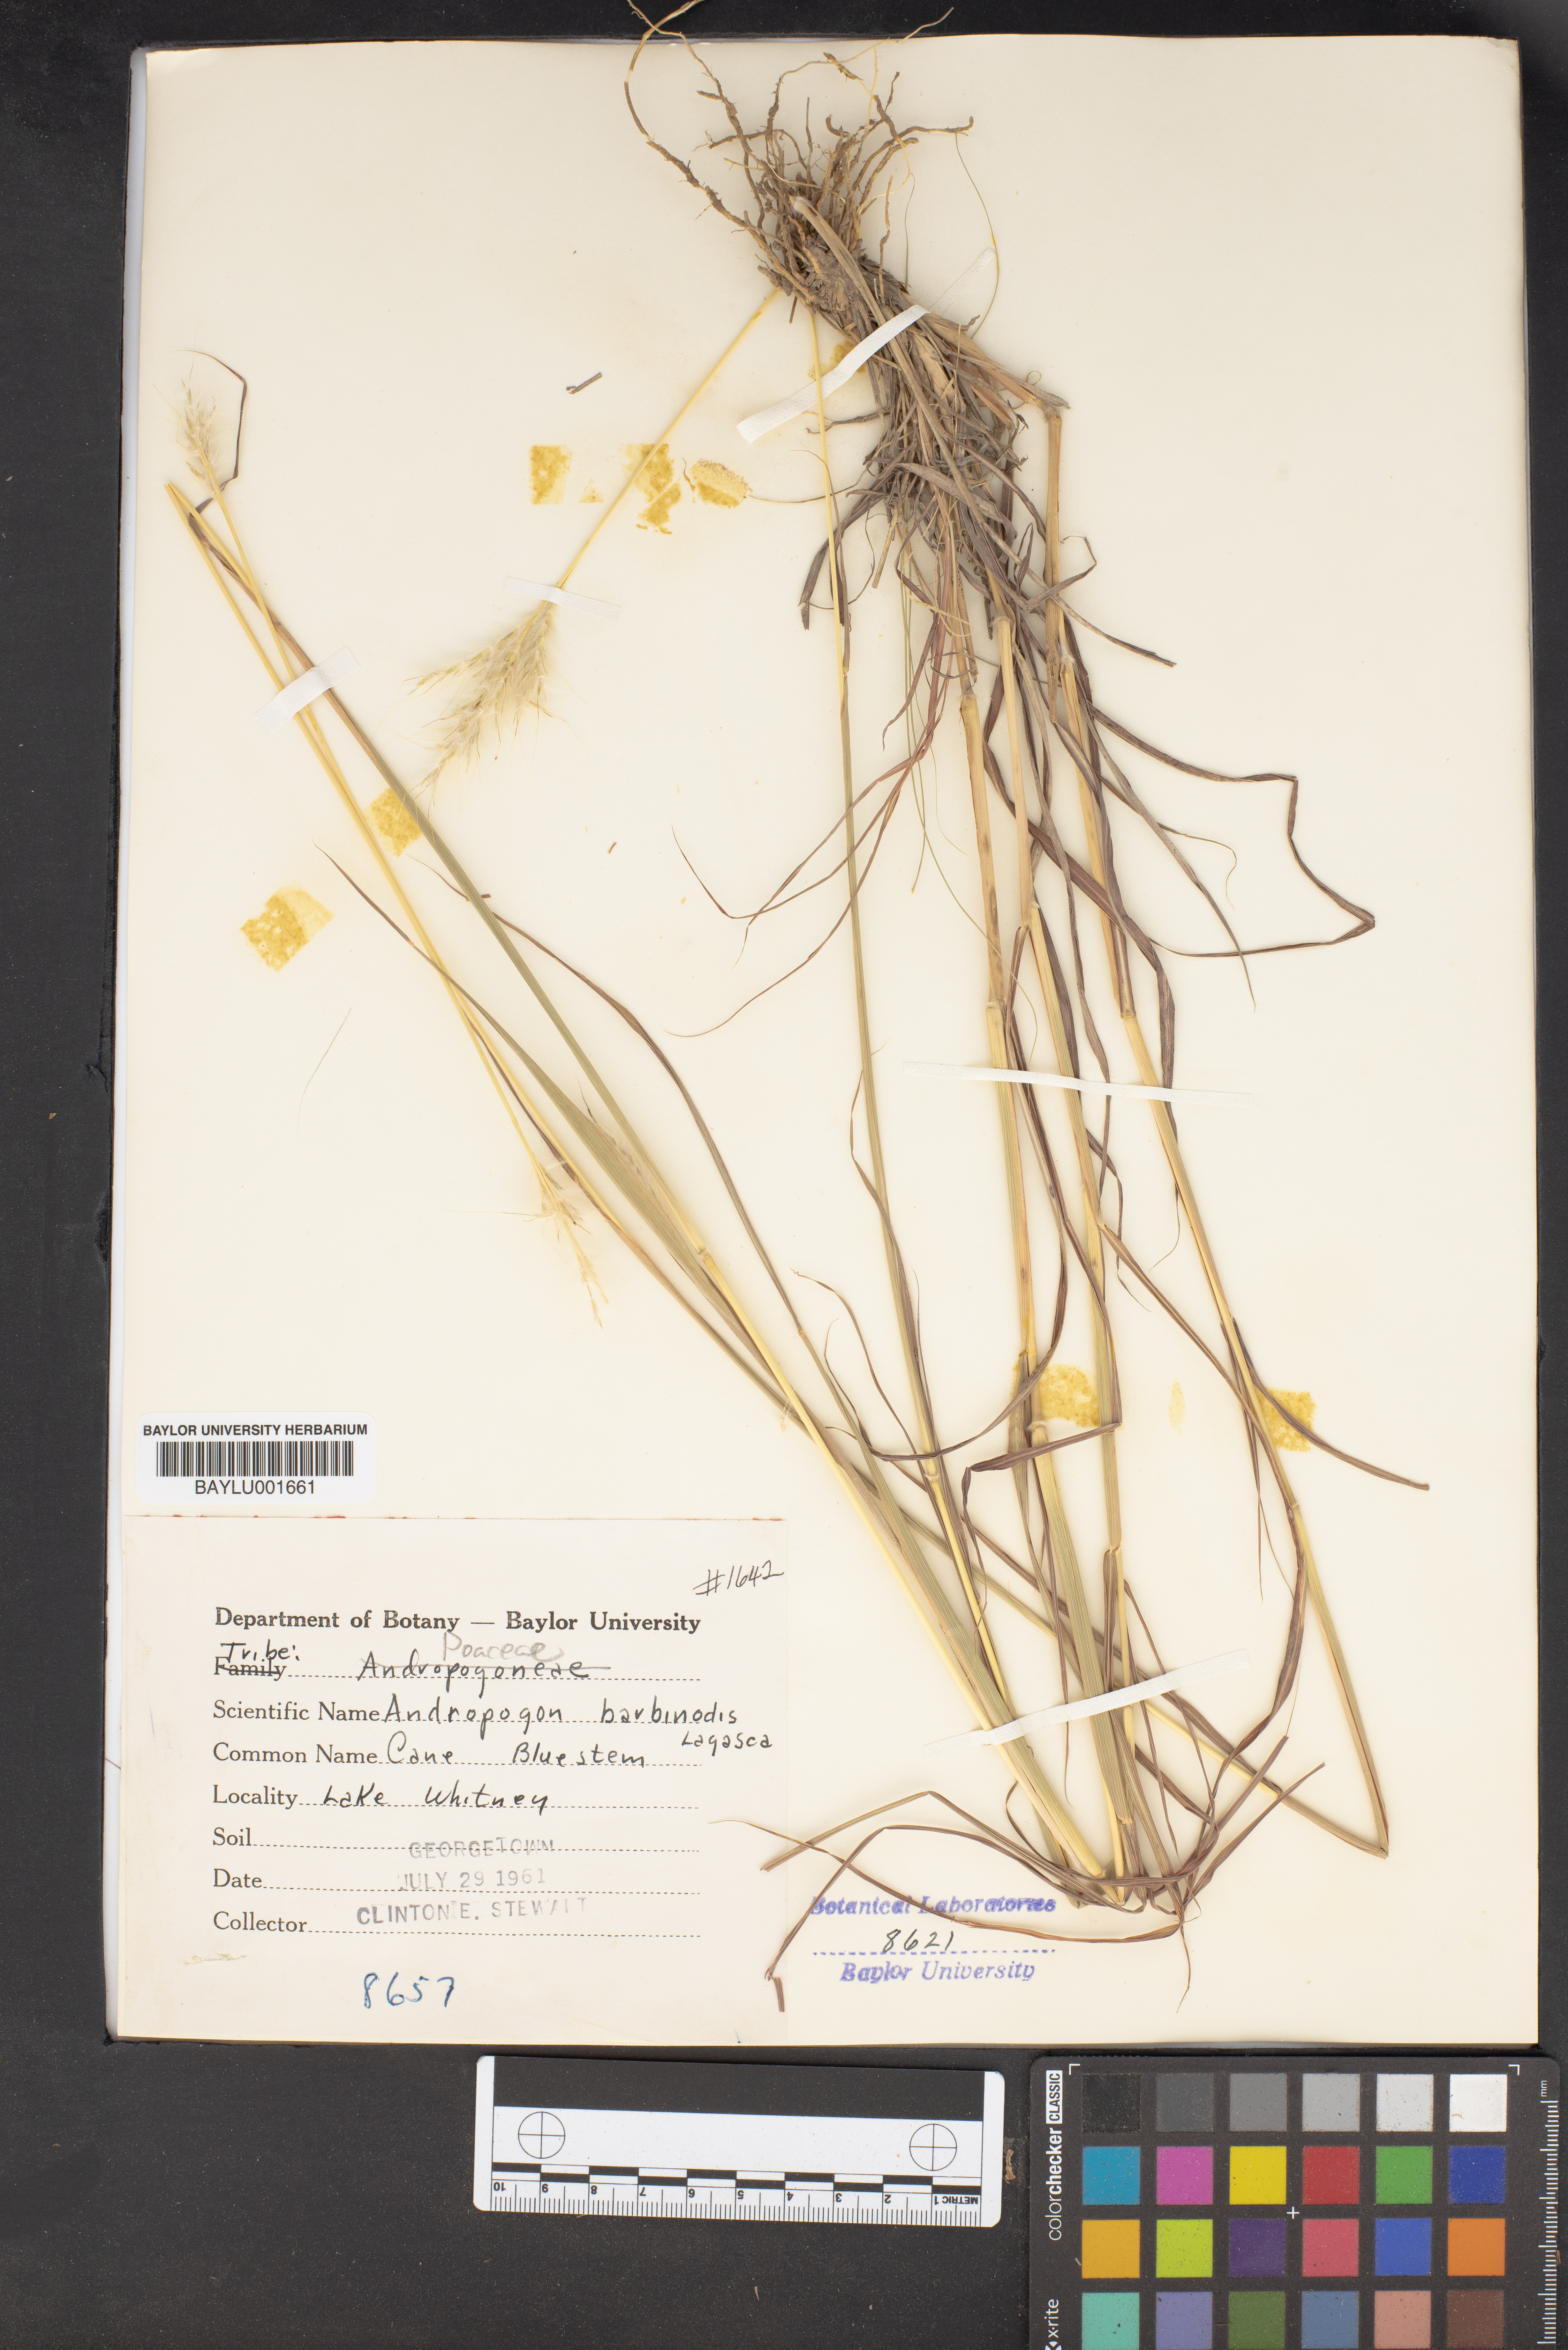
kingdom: Plantae
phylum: Tracheophyta
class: Liliopsida
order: Poales
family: Poaceae
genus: Bothriochloa
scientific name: Bothriochloa barbinodis
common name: Cane bluestem
